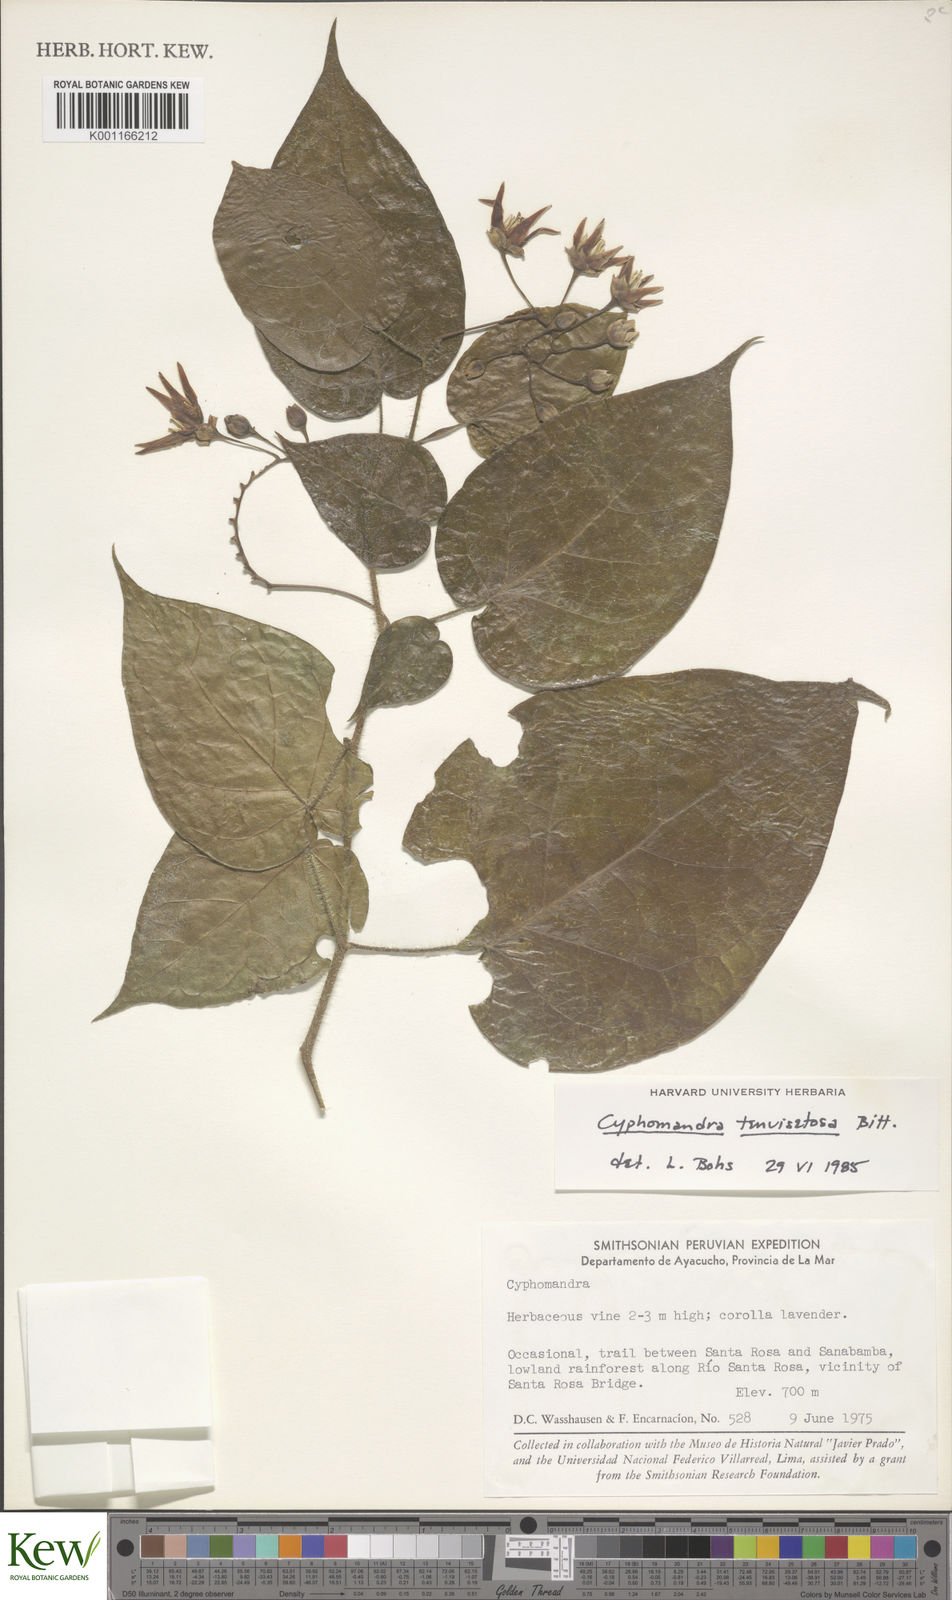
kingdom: Plantae
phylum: Tracheophyta
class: Magnoliopsida
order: Solanales
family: Solanaceae
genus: Solanum
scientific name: Solanum tenuisetosum
